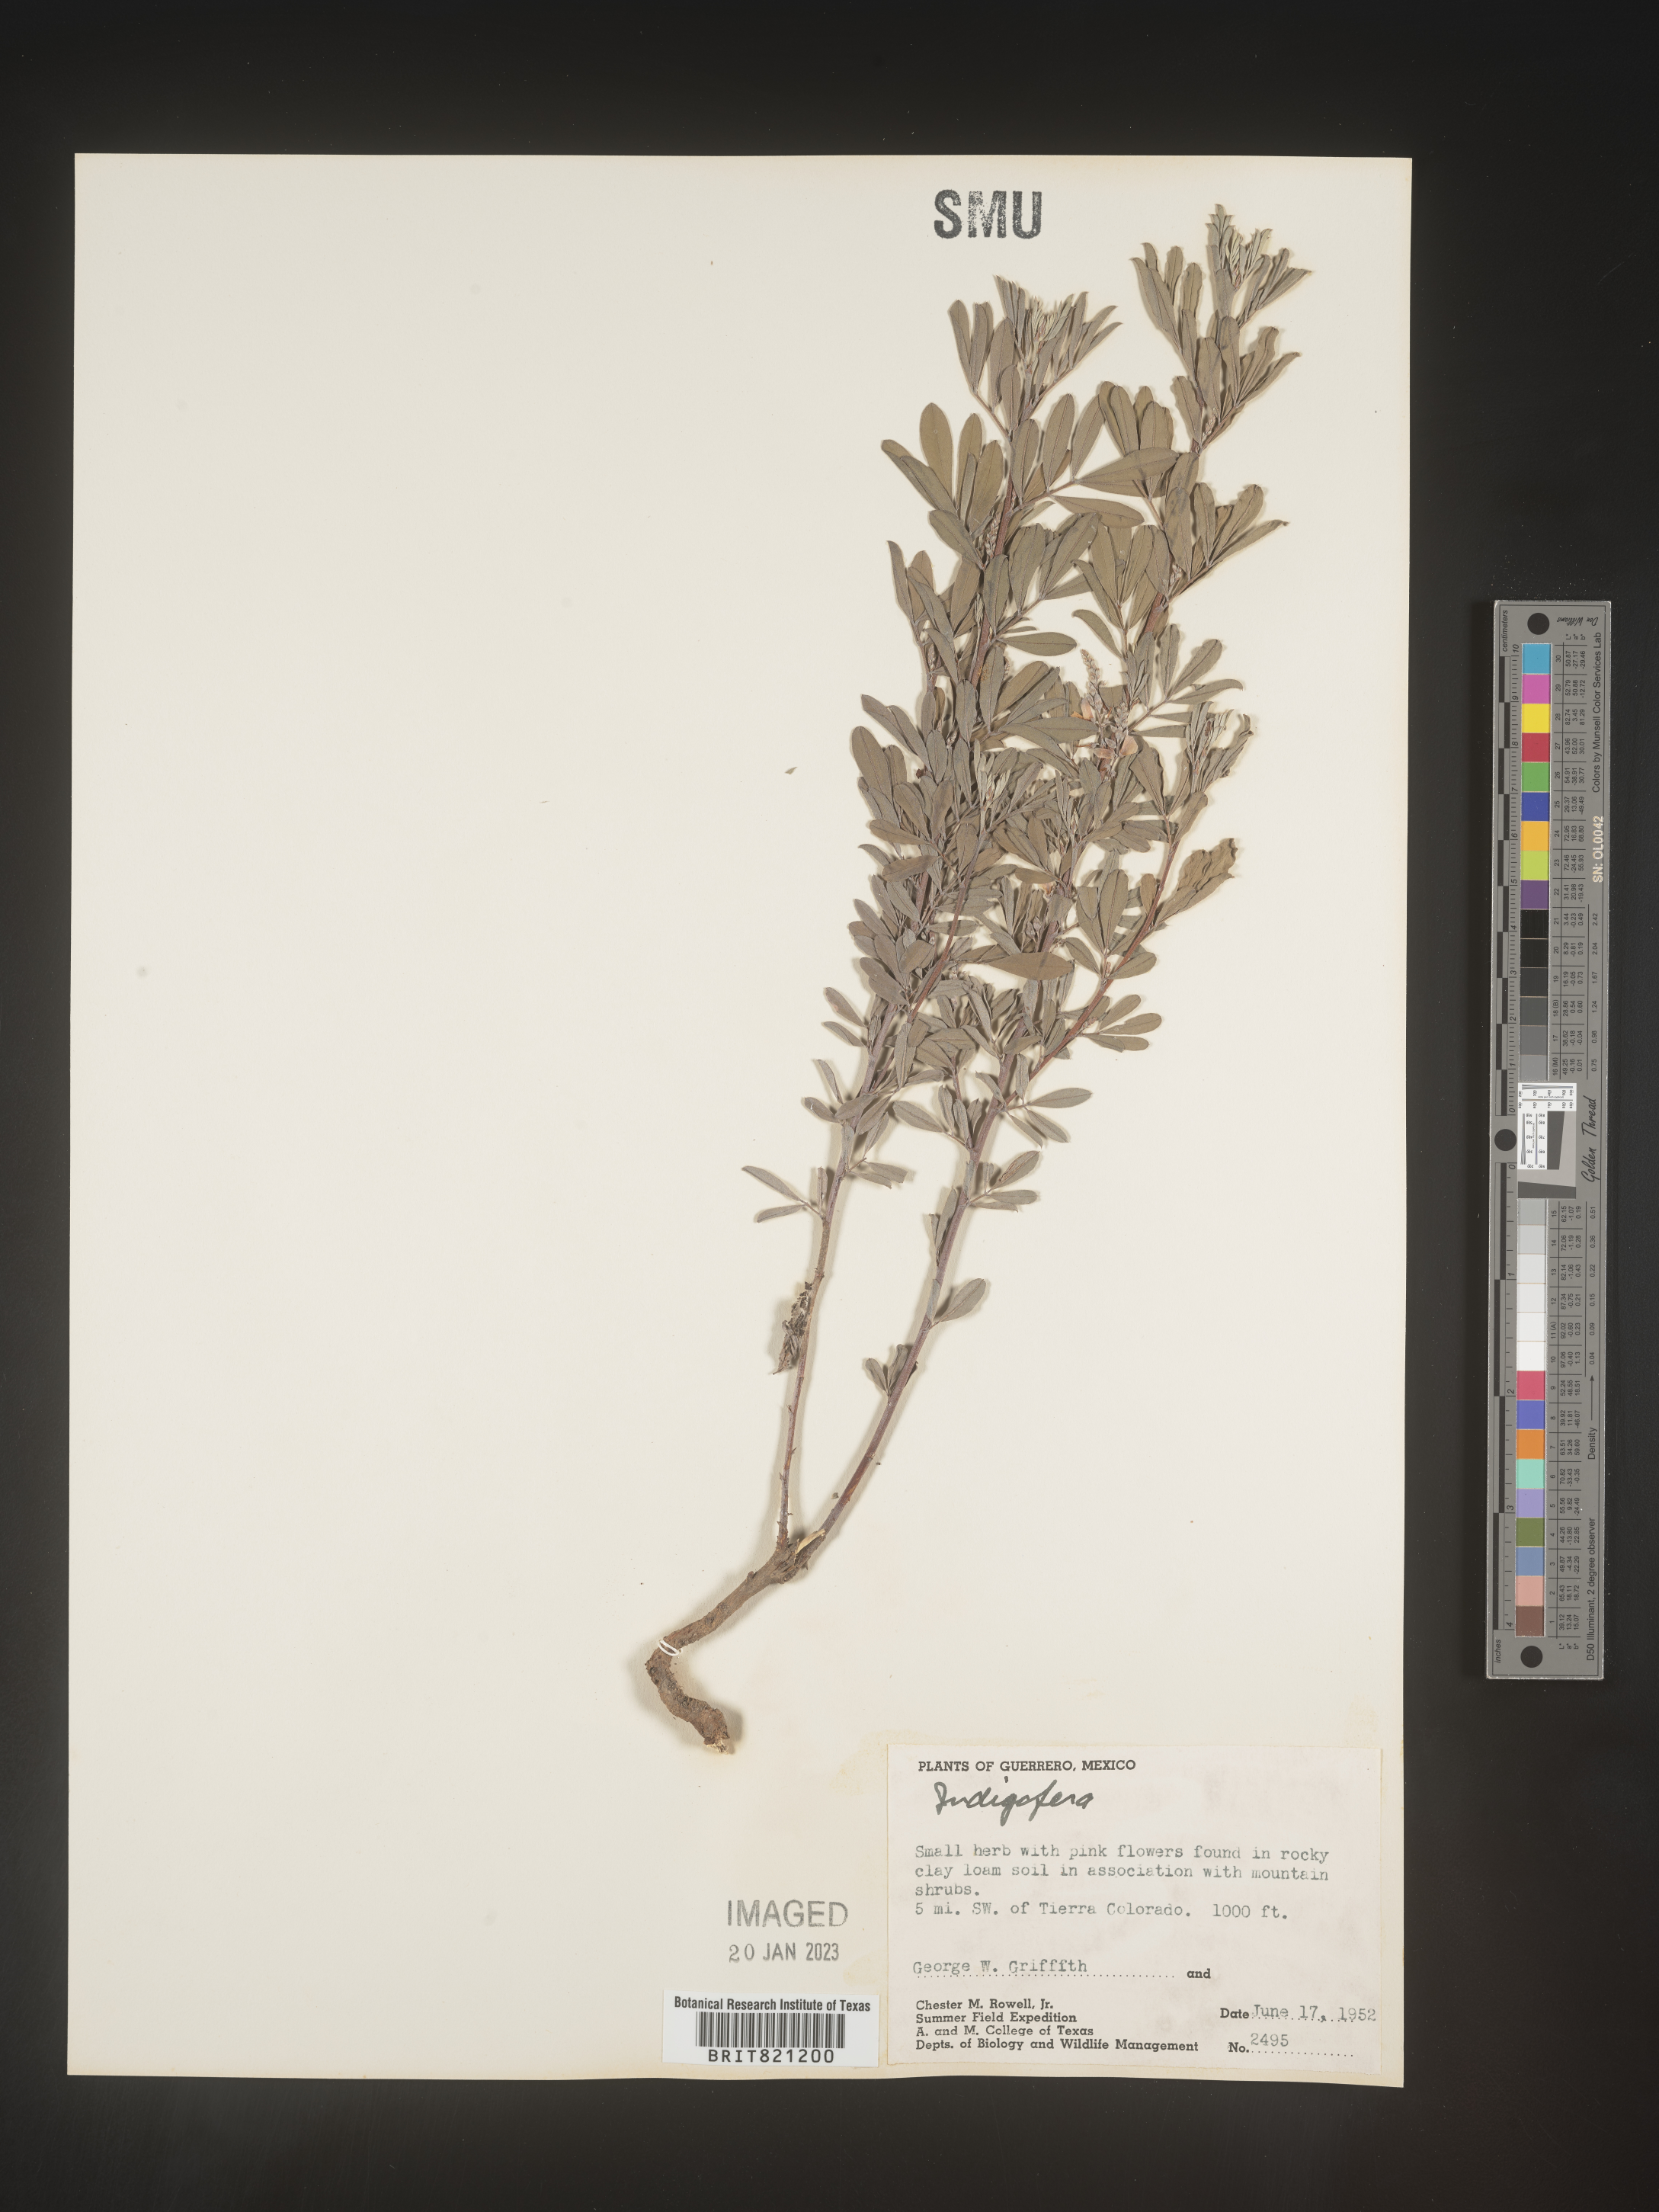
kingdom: Plantae
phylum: Tracheophyta
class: Magnoliopsida
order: Fabales
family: Fabaceae
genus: Indigofera
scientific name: Indigofera
